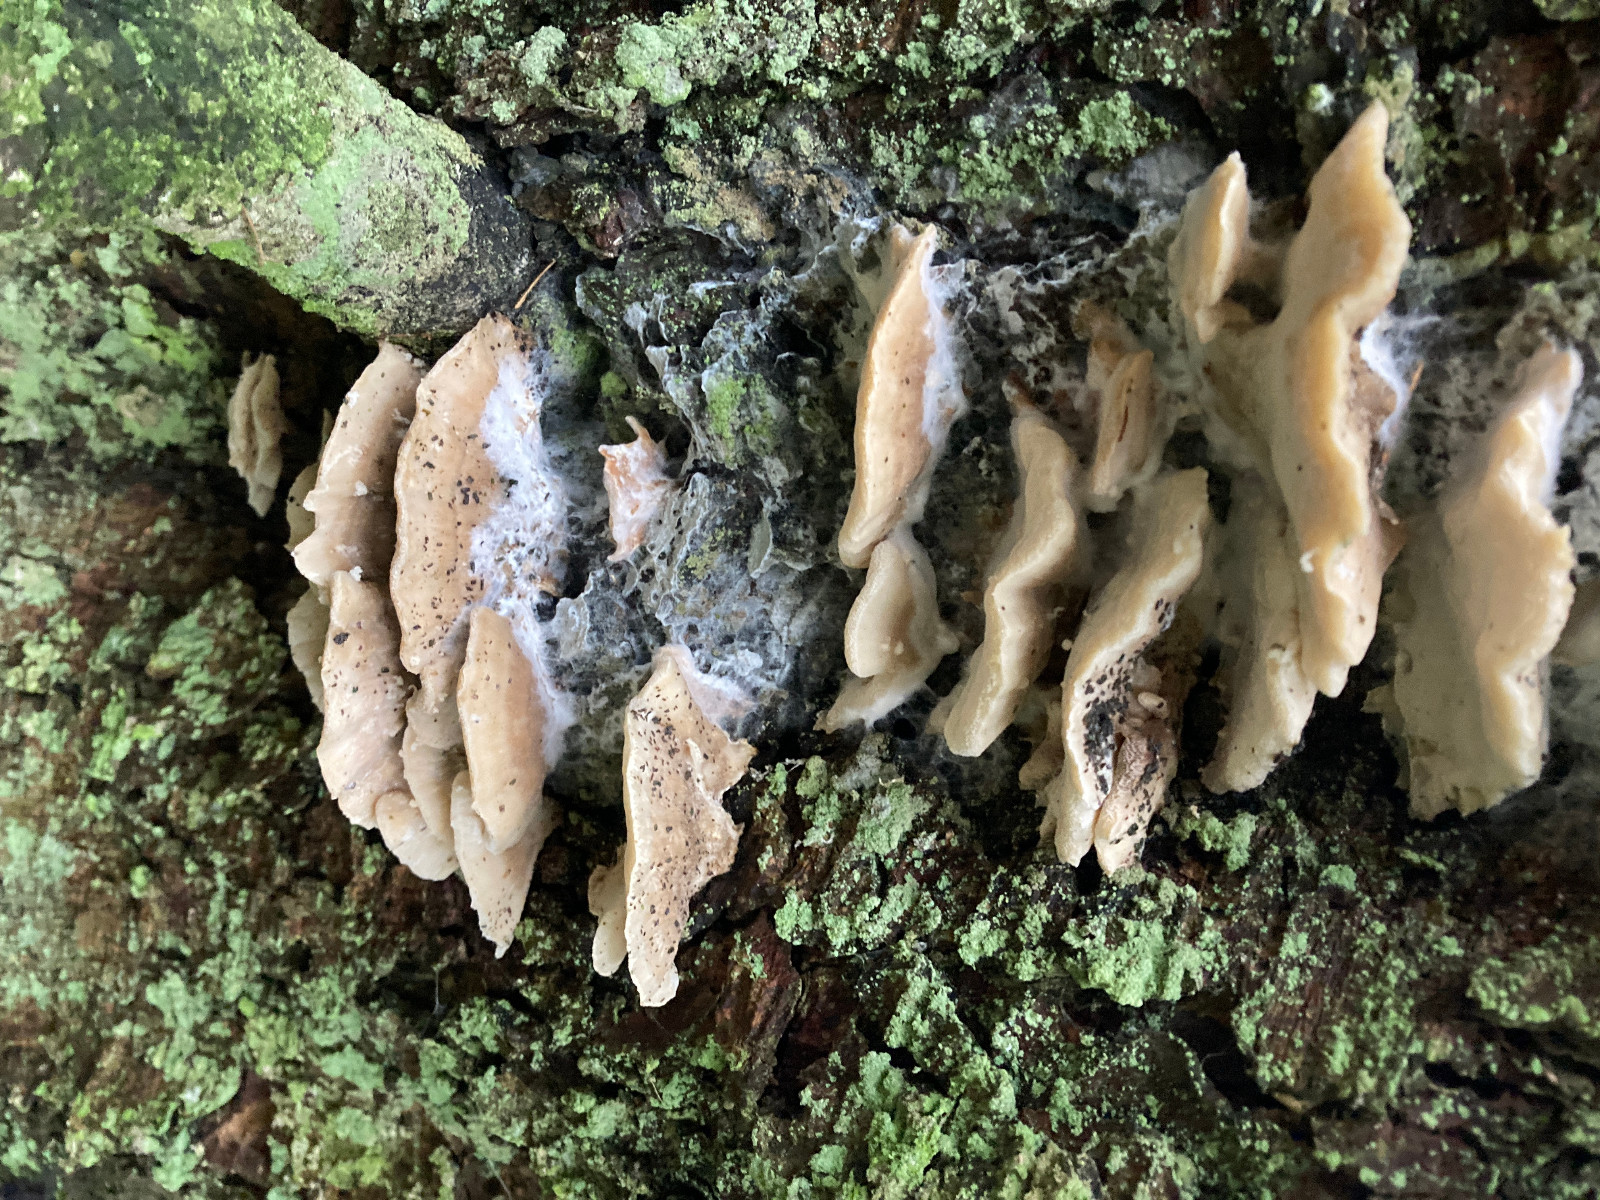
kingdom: Fungi
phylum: Basidiomycota
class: Agaricomycetes
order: Polyporales
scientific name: Polyporales
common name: poresvampordenen
